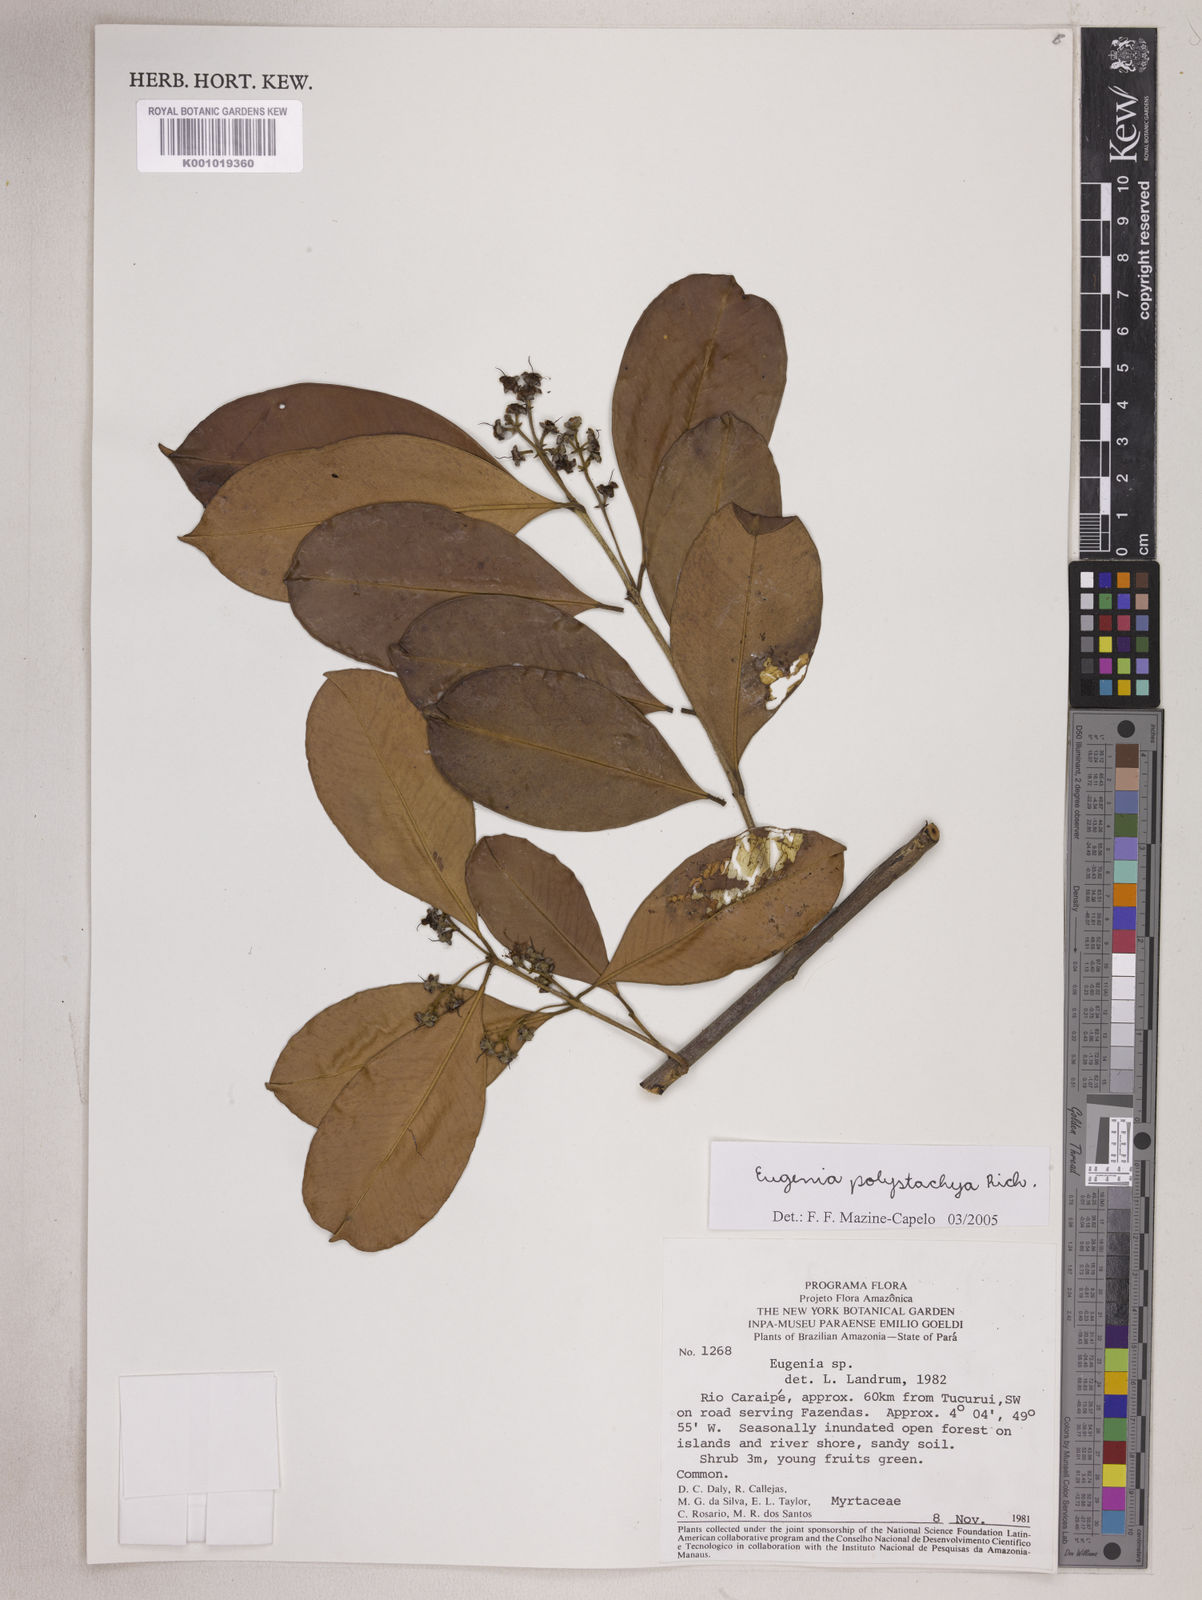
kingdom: Plantae
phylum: Tracheophyta
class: Magnoliopsida
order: Myrtales
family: Myrtaceae
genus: Eugenia
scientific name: Eugenia polystachya
